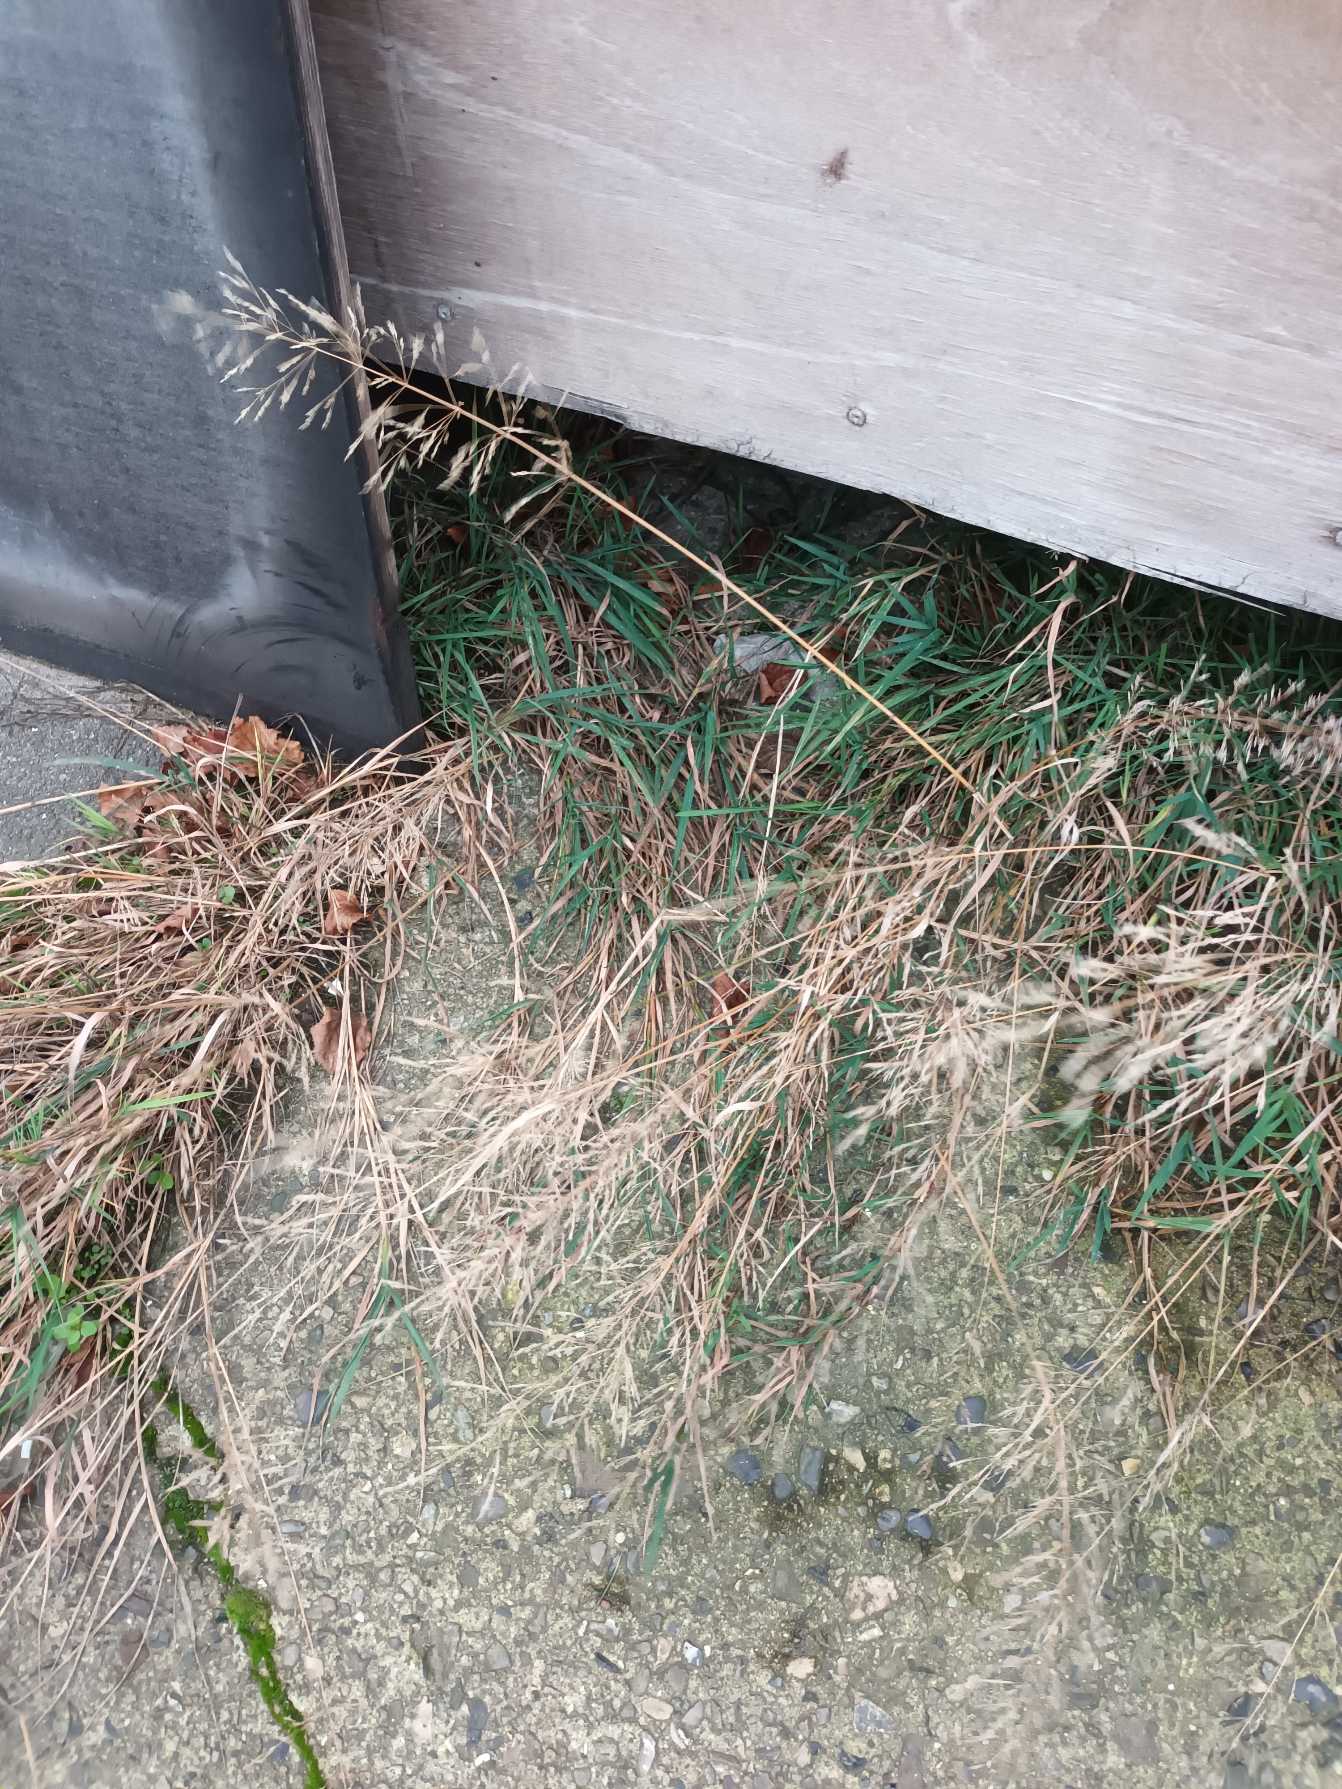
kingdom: Plantae
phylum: Tracheophyta
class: Liliopsida
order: Poales
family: Poaceae
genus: Agrostis
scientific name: Agrostis gigantea
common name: Stortoppet hvene
